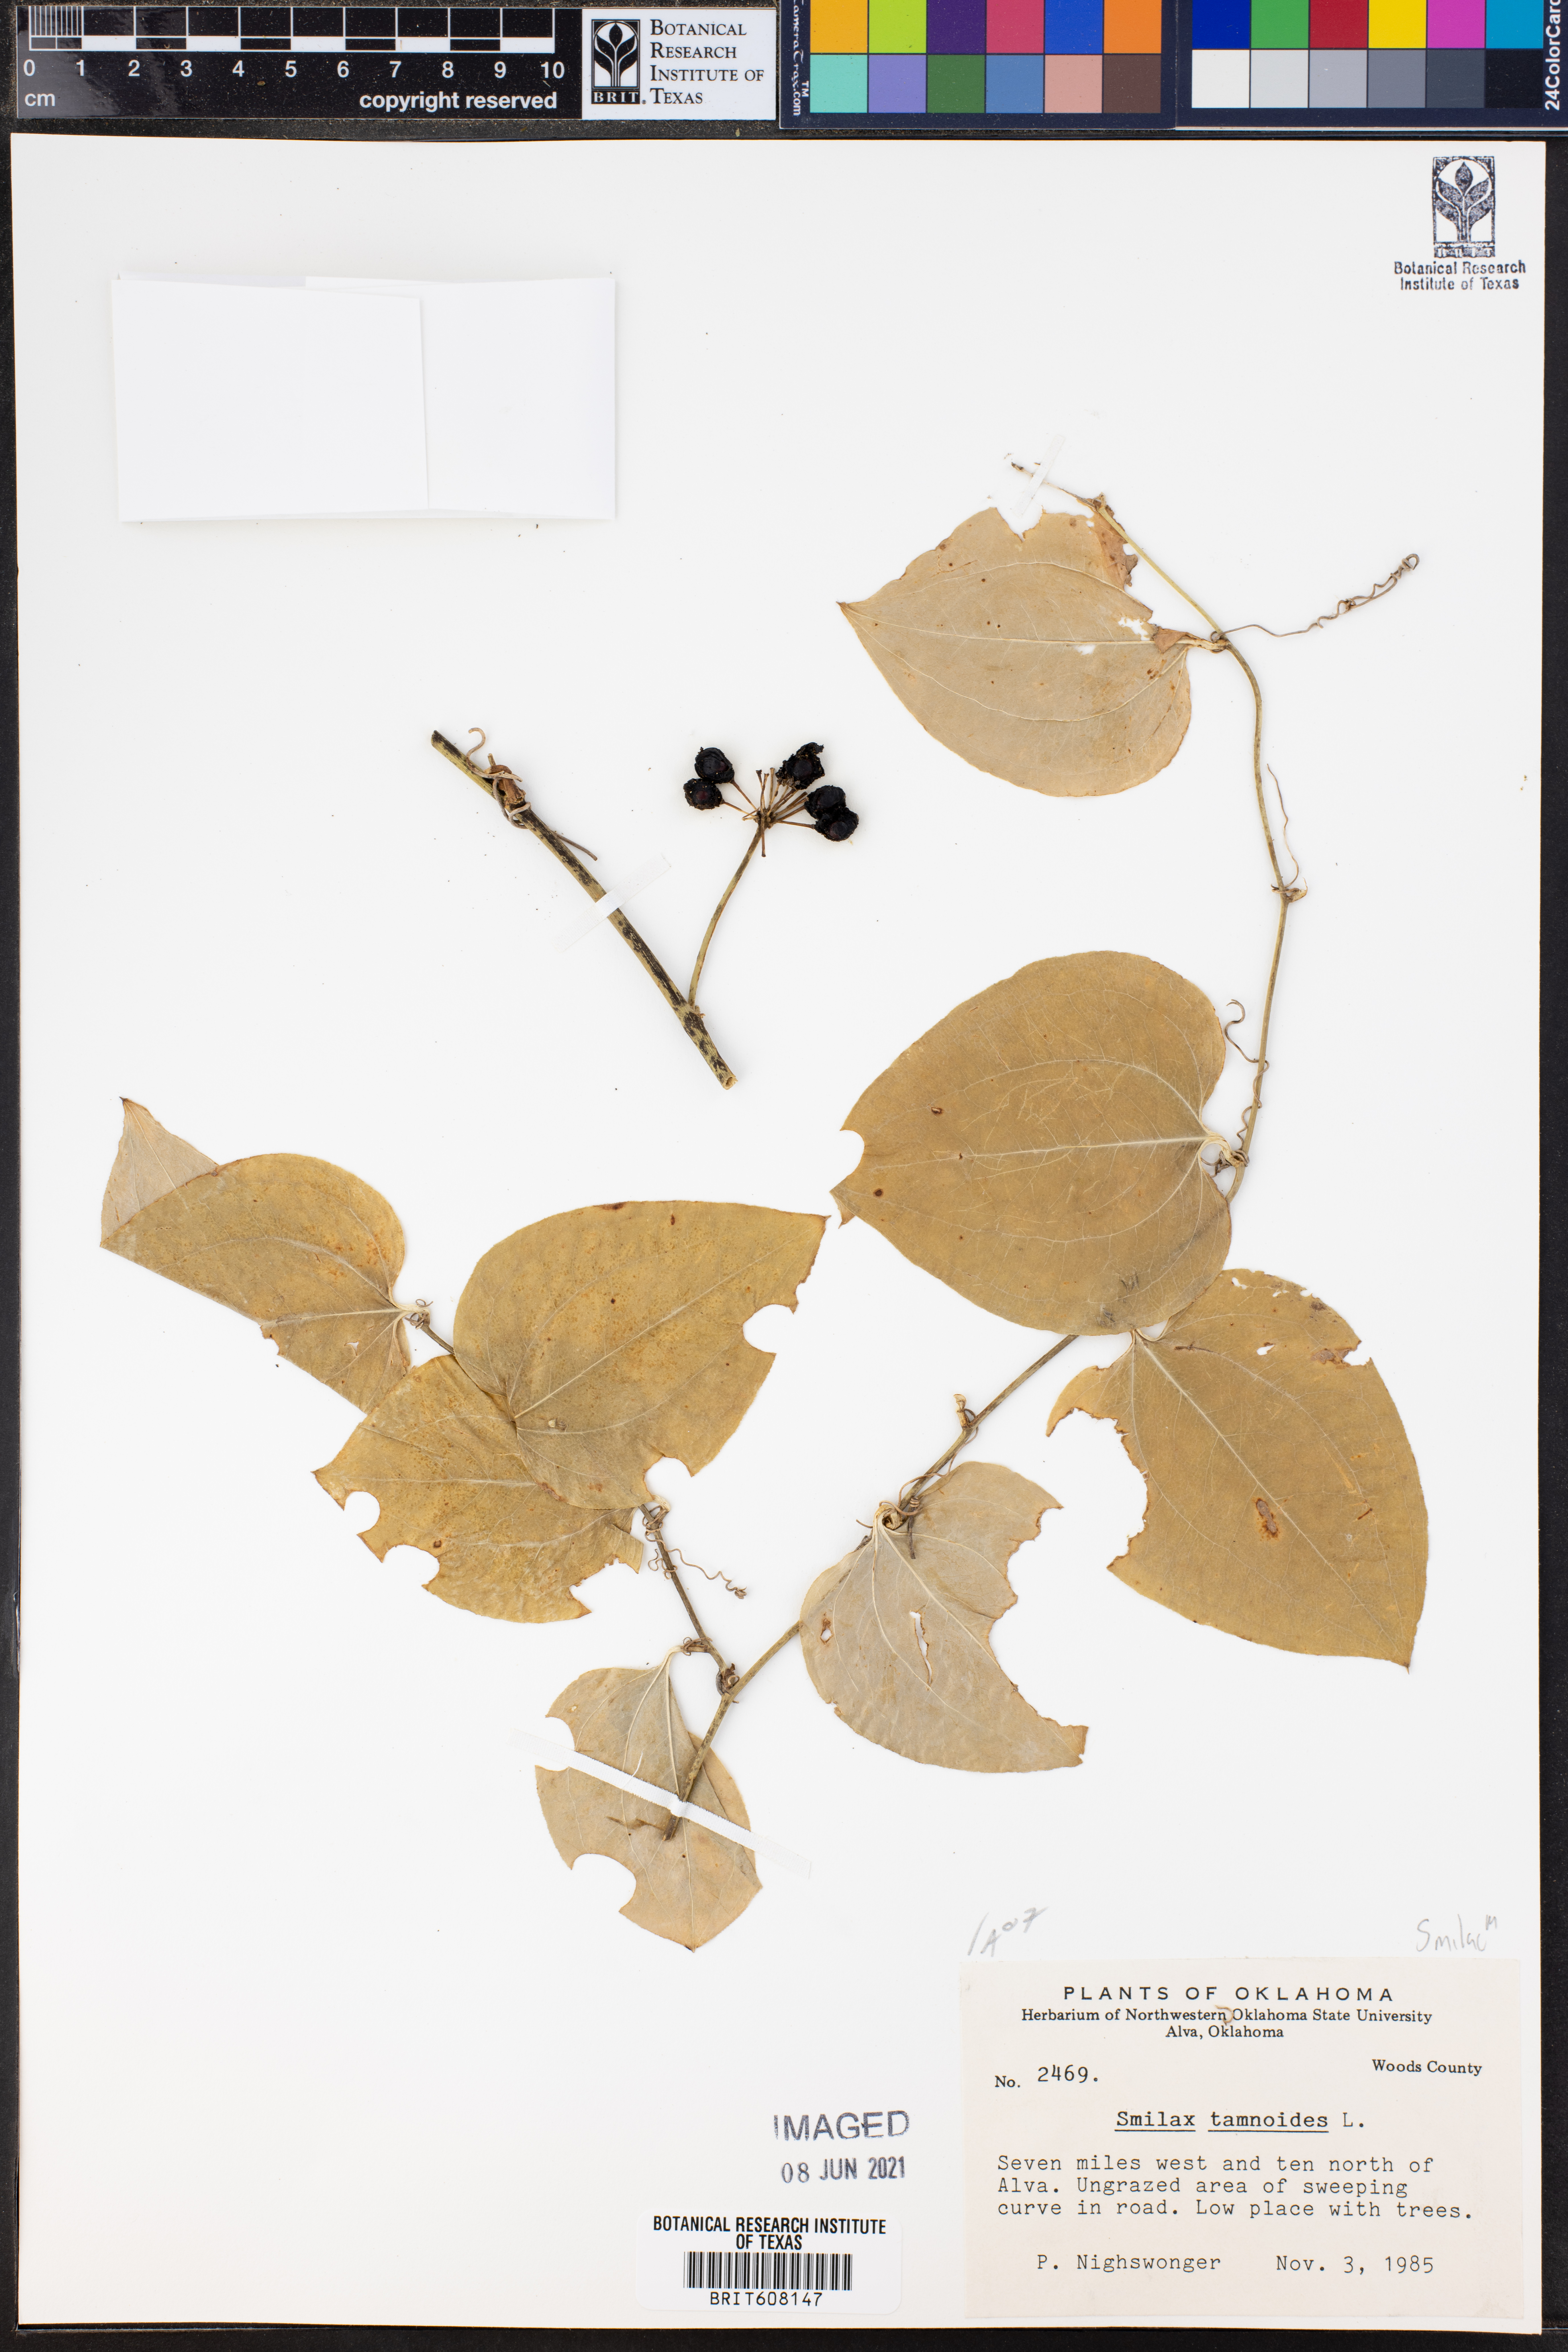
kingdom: Plantae
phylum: Tracheophyta
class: Liliopsida
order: Liliales
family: Smilacaceae
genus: Smilax
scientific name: Smilax tamnoides
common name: Hellfetter
